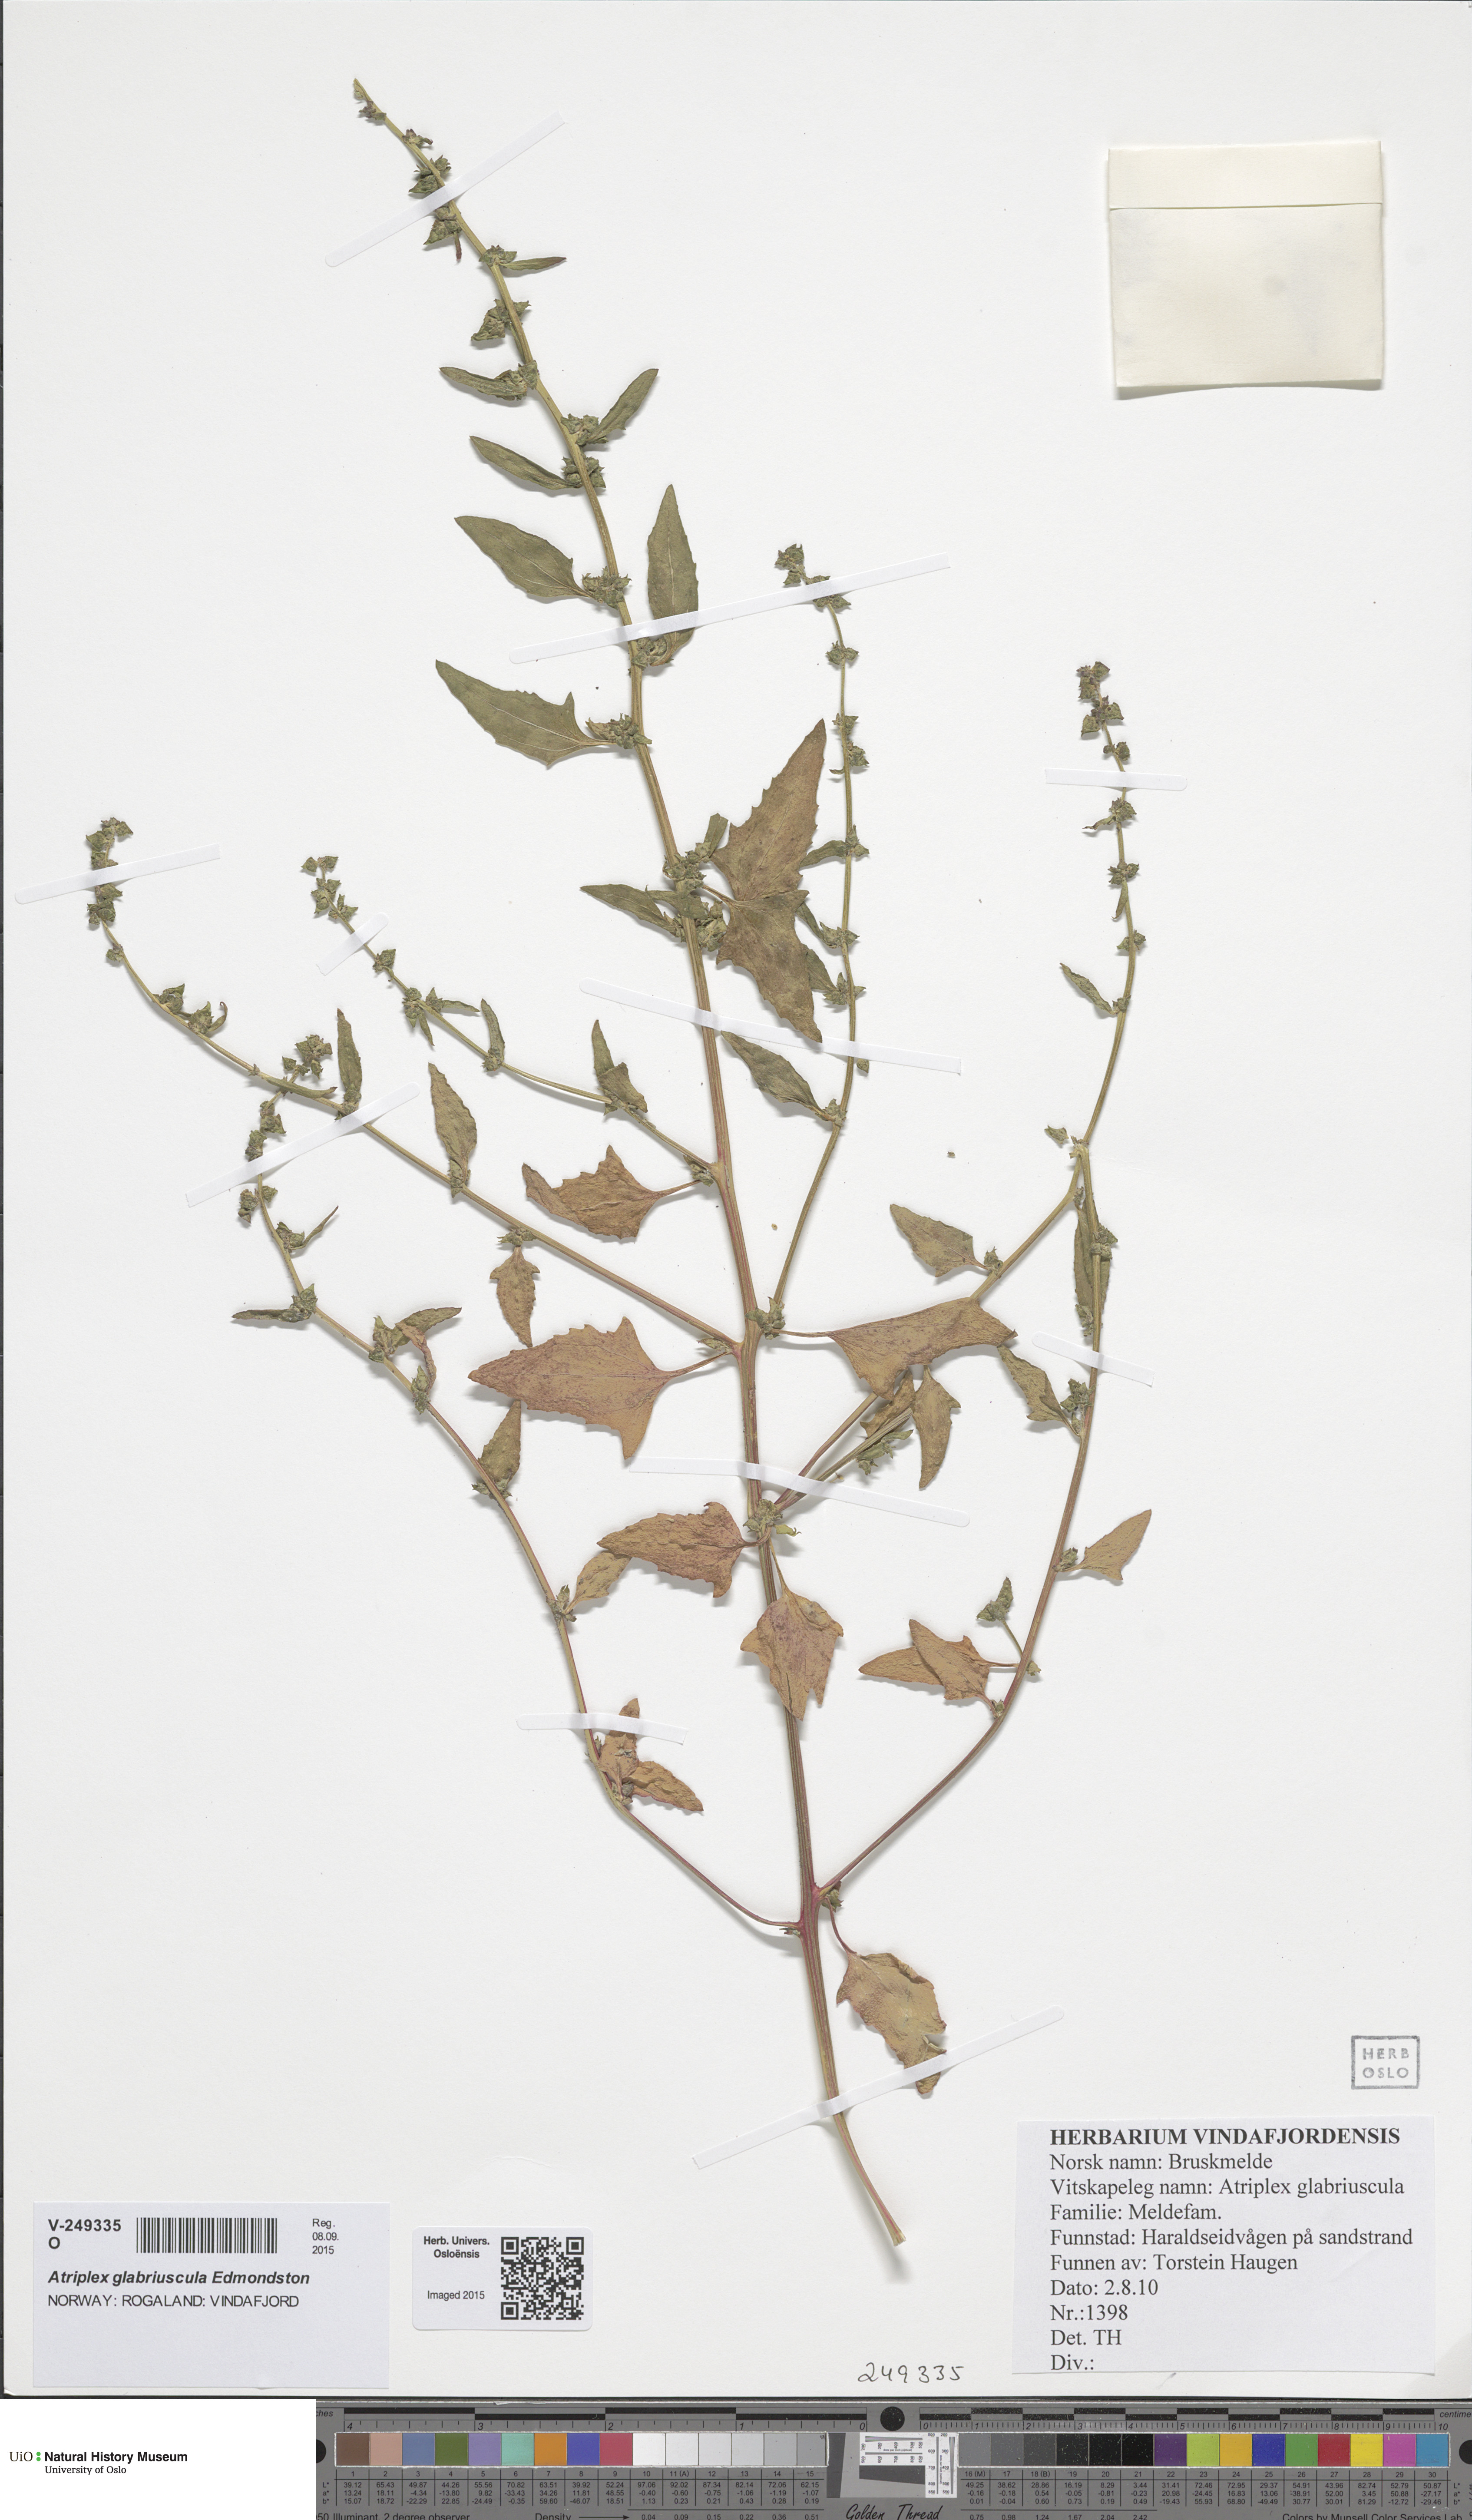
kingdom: Plantae
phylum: Tracheophyta
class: Magnoliopsida
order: Caryophyllales
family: Amaranthaceae
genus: Atriplex
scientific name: Atriplex prostrata
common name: Spear-leaved orache
